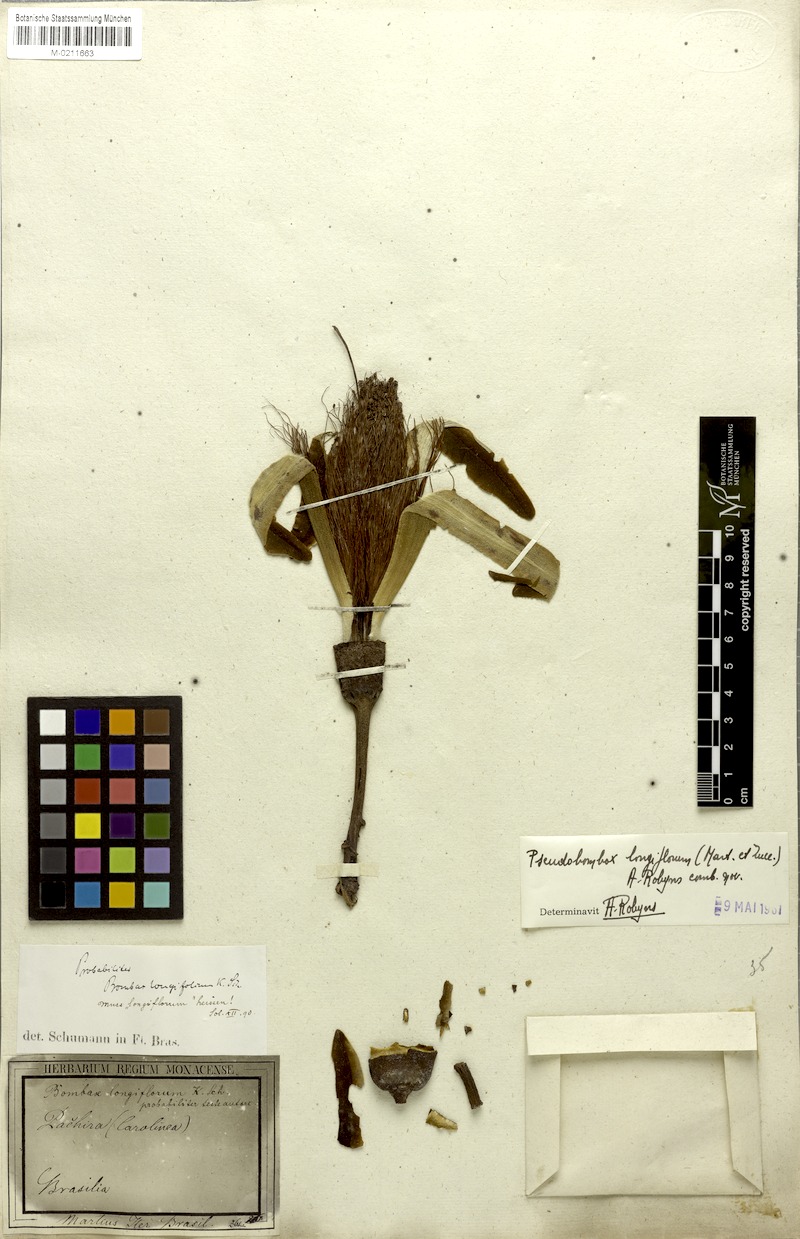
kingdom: Plantae
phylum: Tracheophyta
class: Magnoliopsida
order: Malvales
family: Malvaceae
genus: Pseudobombax
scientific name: Pseudobombax longiflorum
